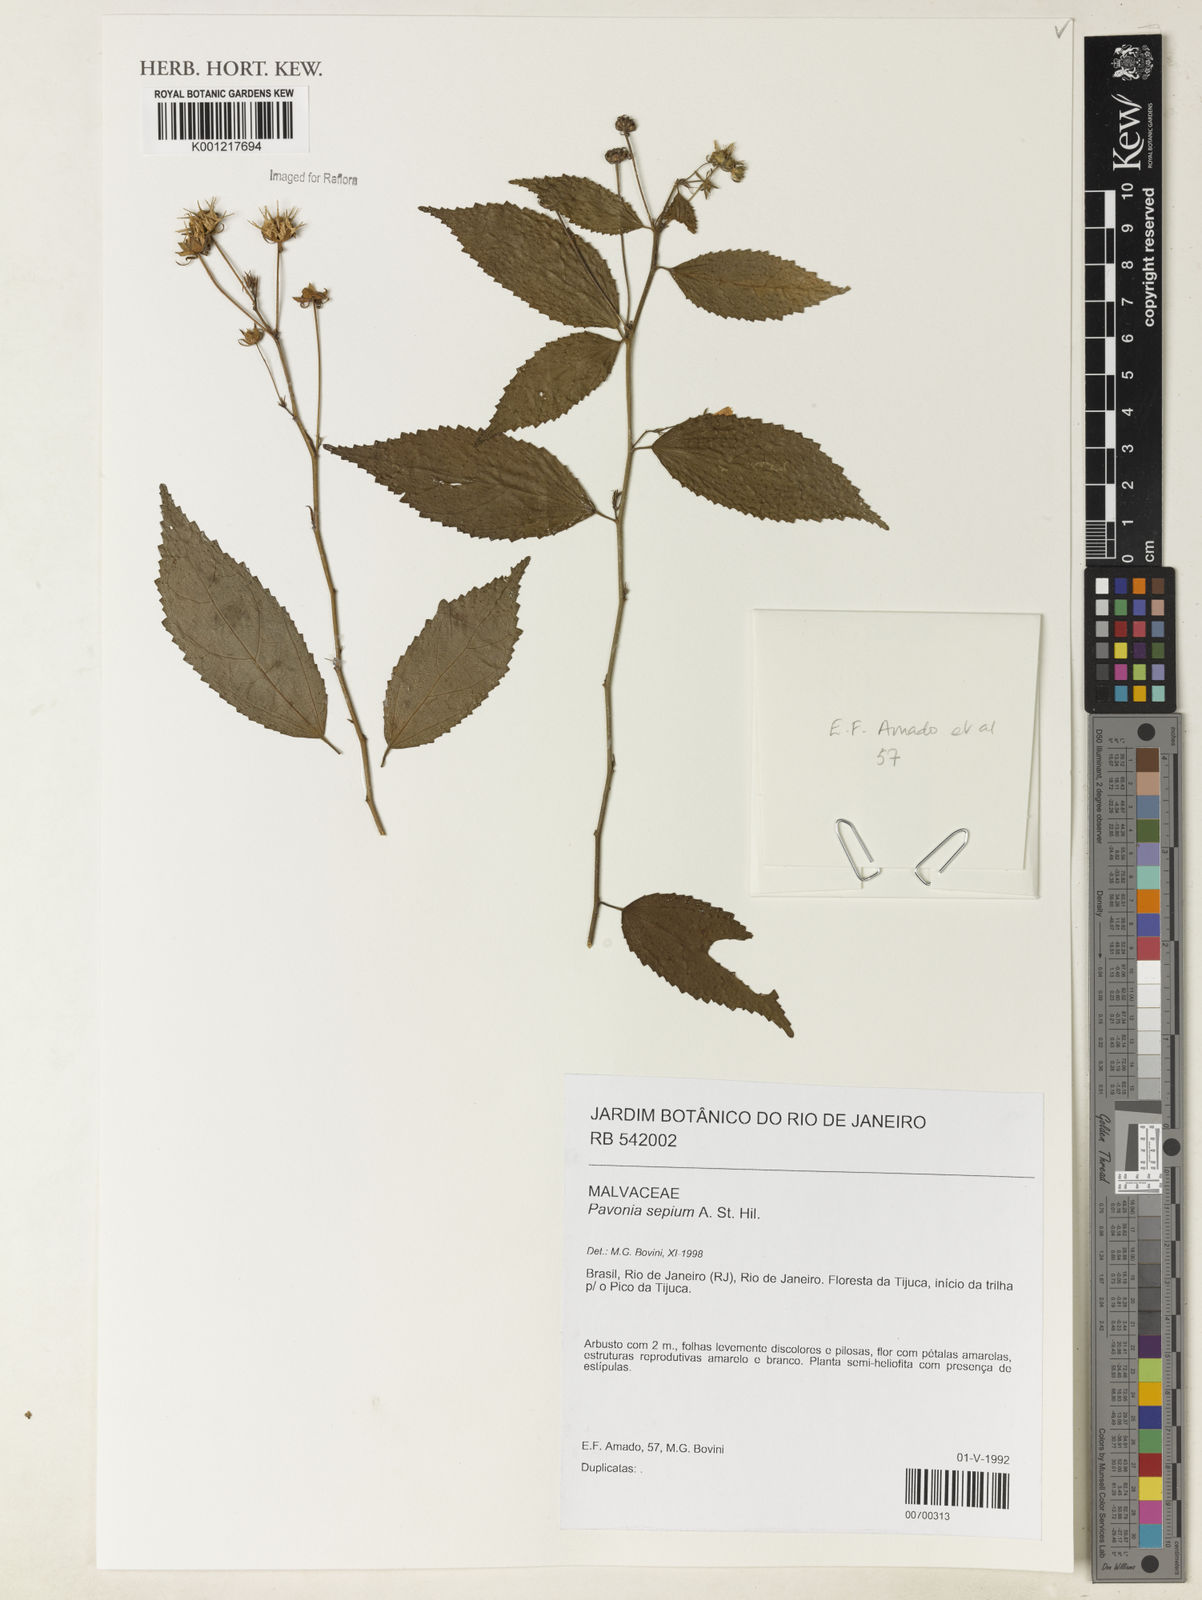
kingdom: Plantae
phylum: Tracheophyta
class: Magnoliopsida
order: Malvales
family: Malvaceae
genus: Pavonia
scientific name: Pavonia sepium
